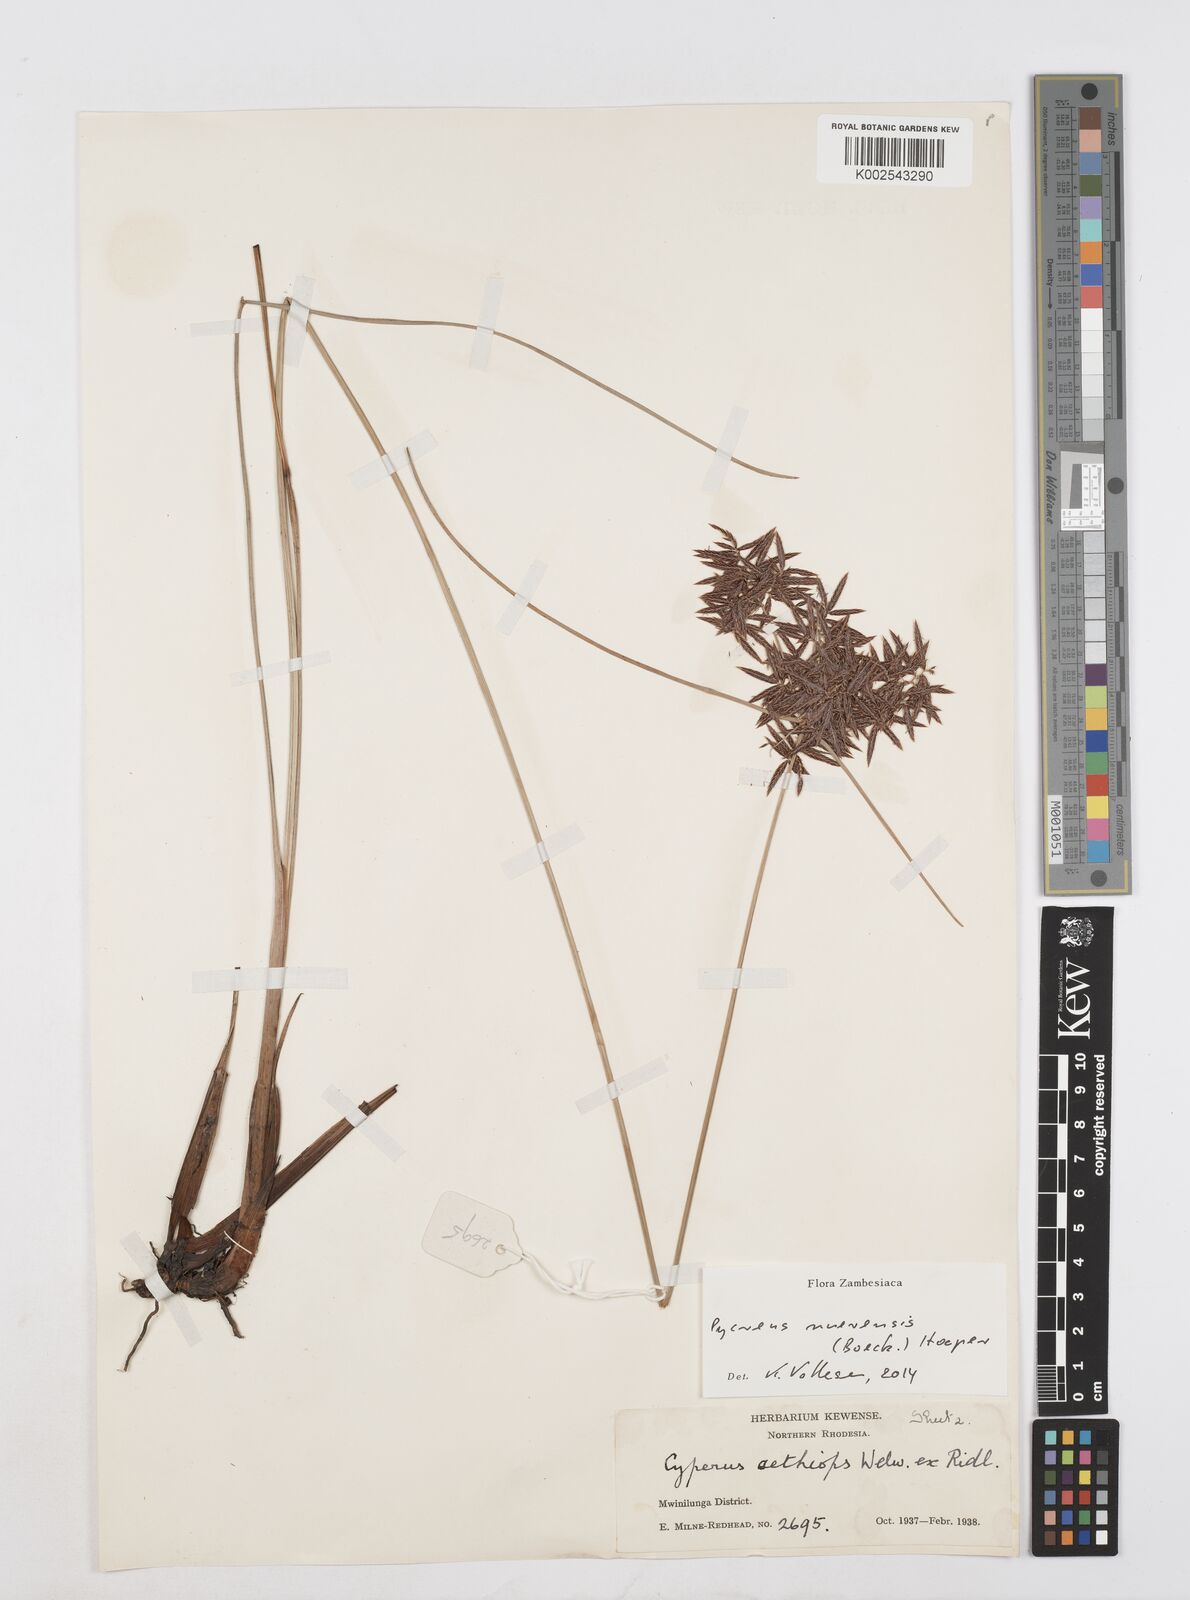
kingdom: Plantae
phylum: Tracheophyta
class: Liliopsida
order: Poales
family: Cyperaceae
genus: Cyperus
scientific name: Cyperus nuerensis
